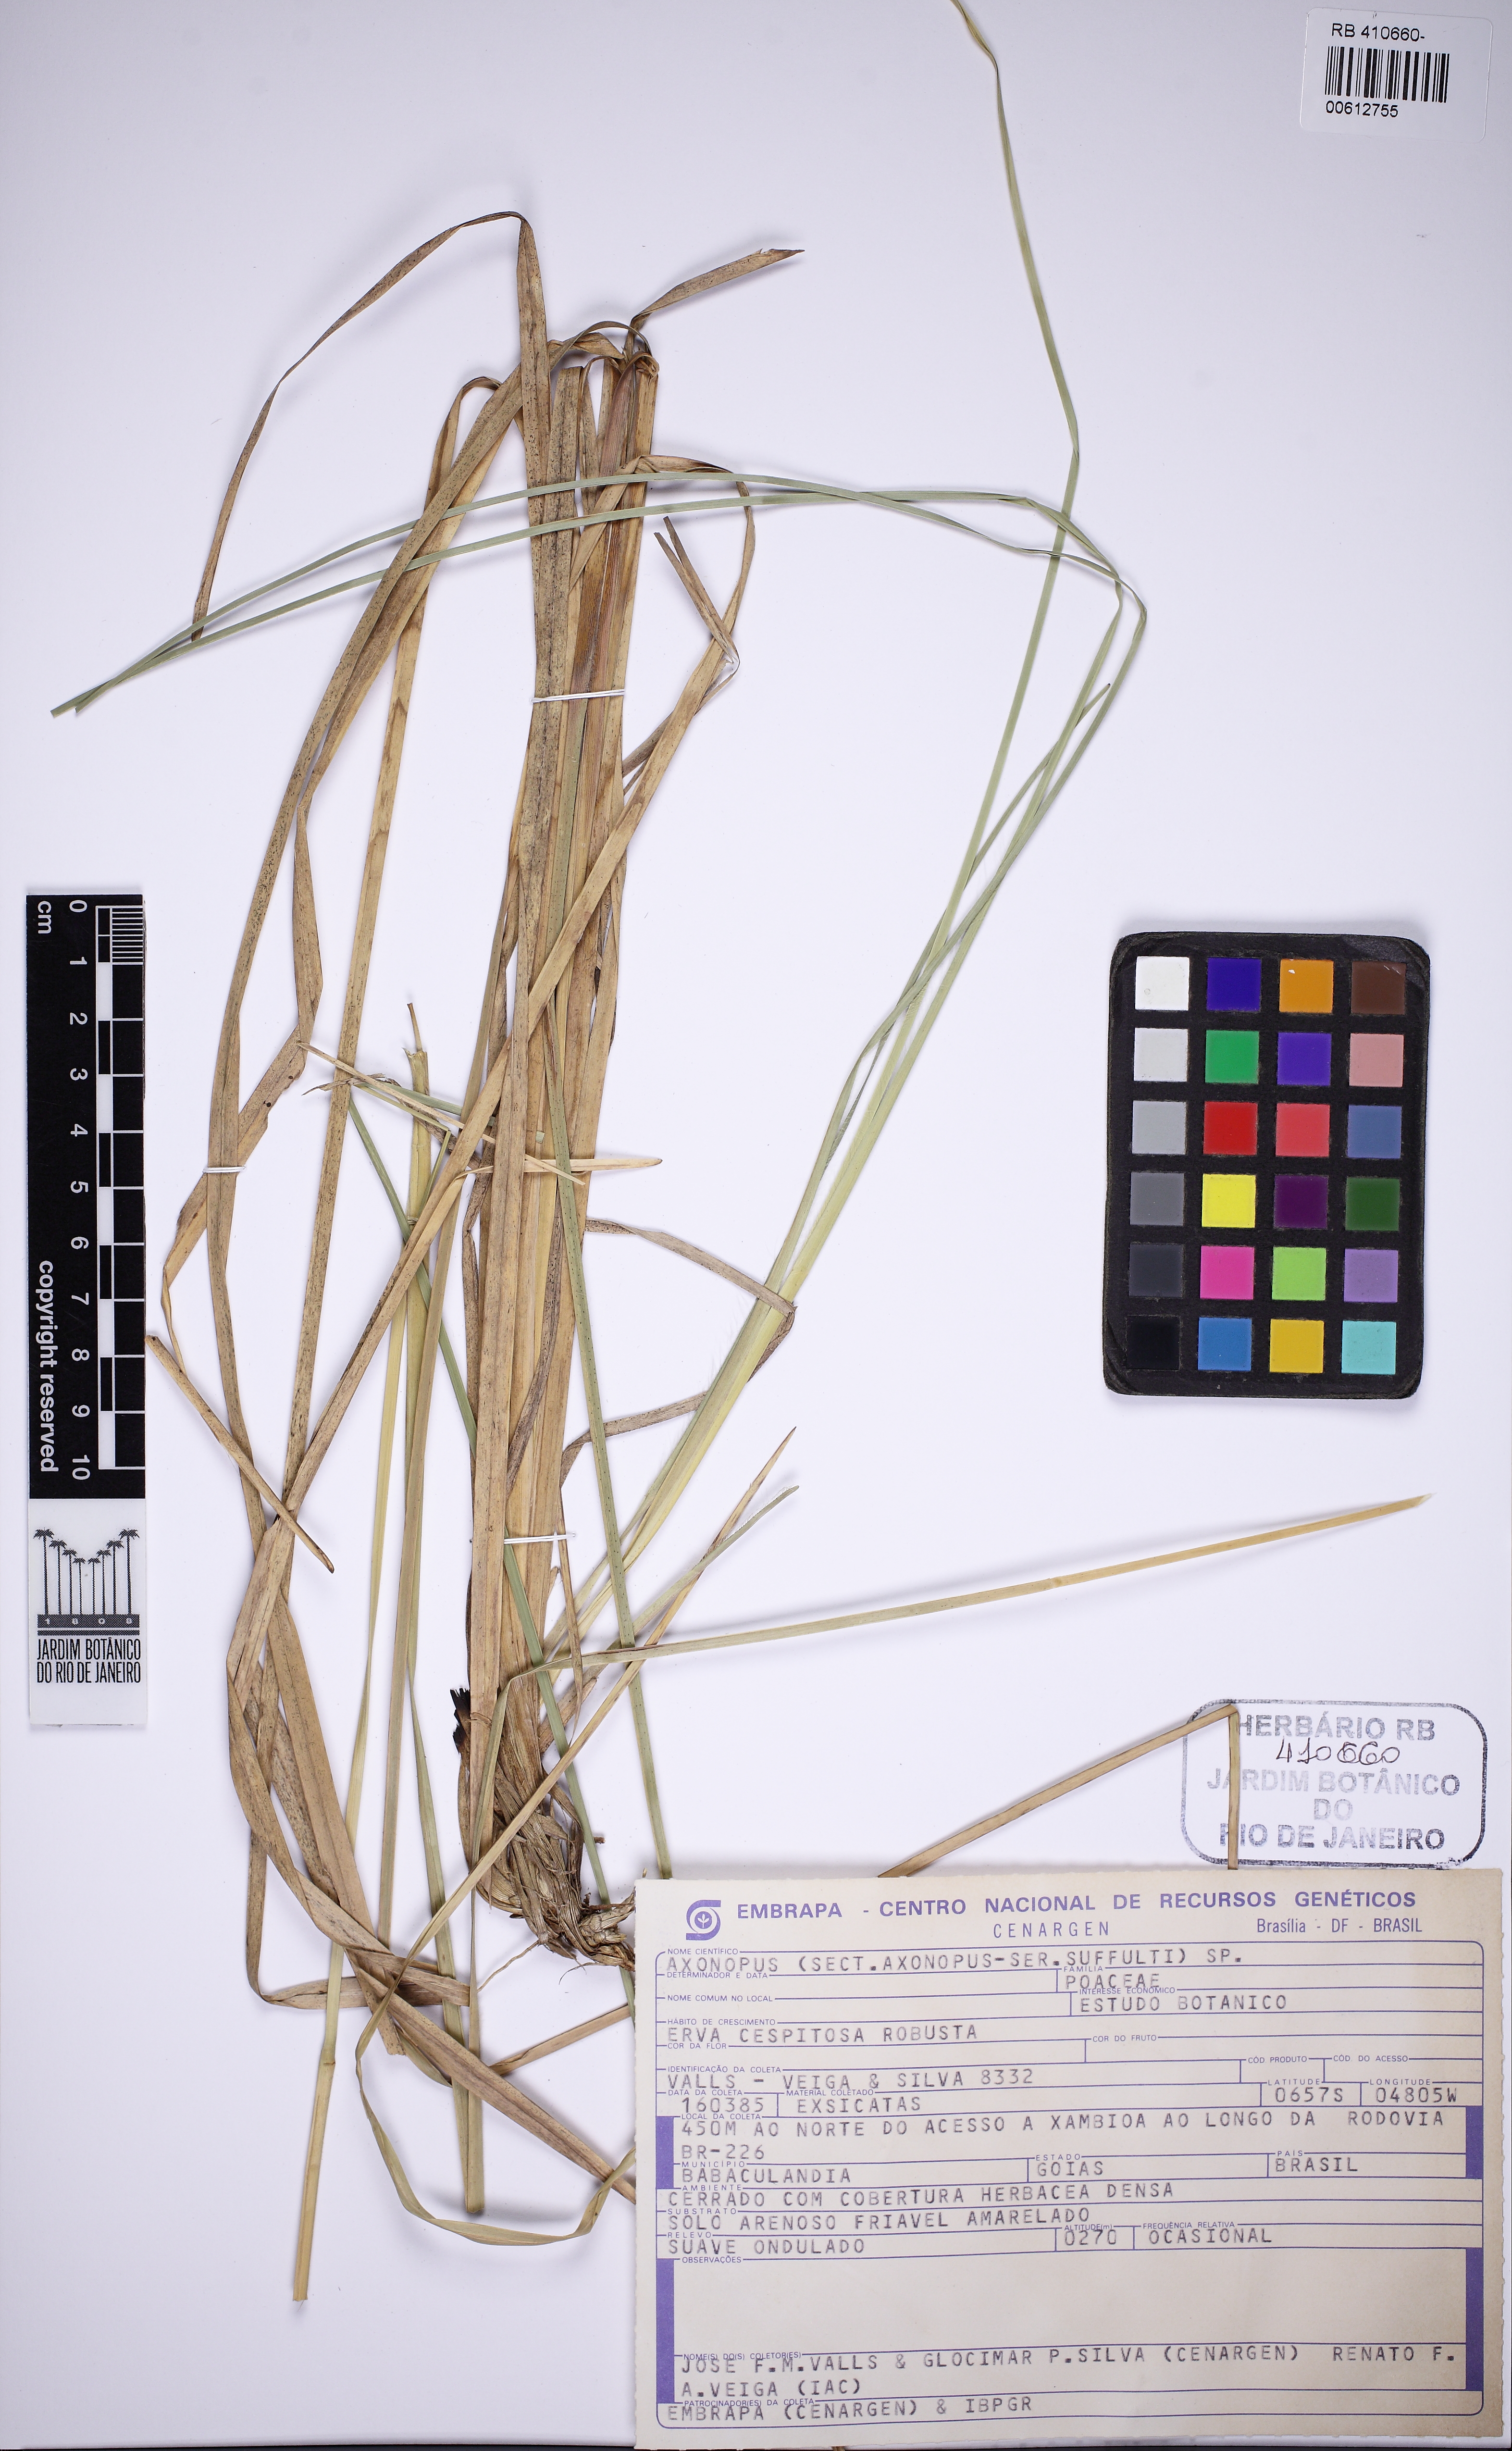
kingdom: Plantae
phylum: Tracheophyta
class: Liliopsida
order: Poales
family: Poaceae
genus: Axonopus
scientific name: Axonopus
